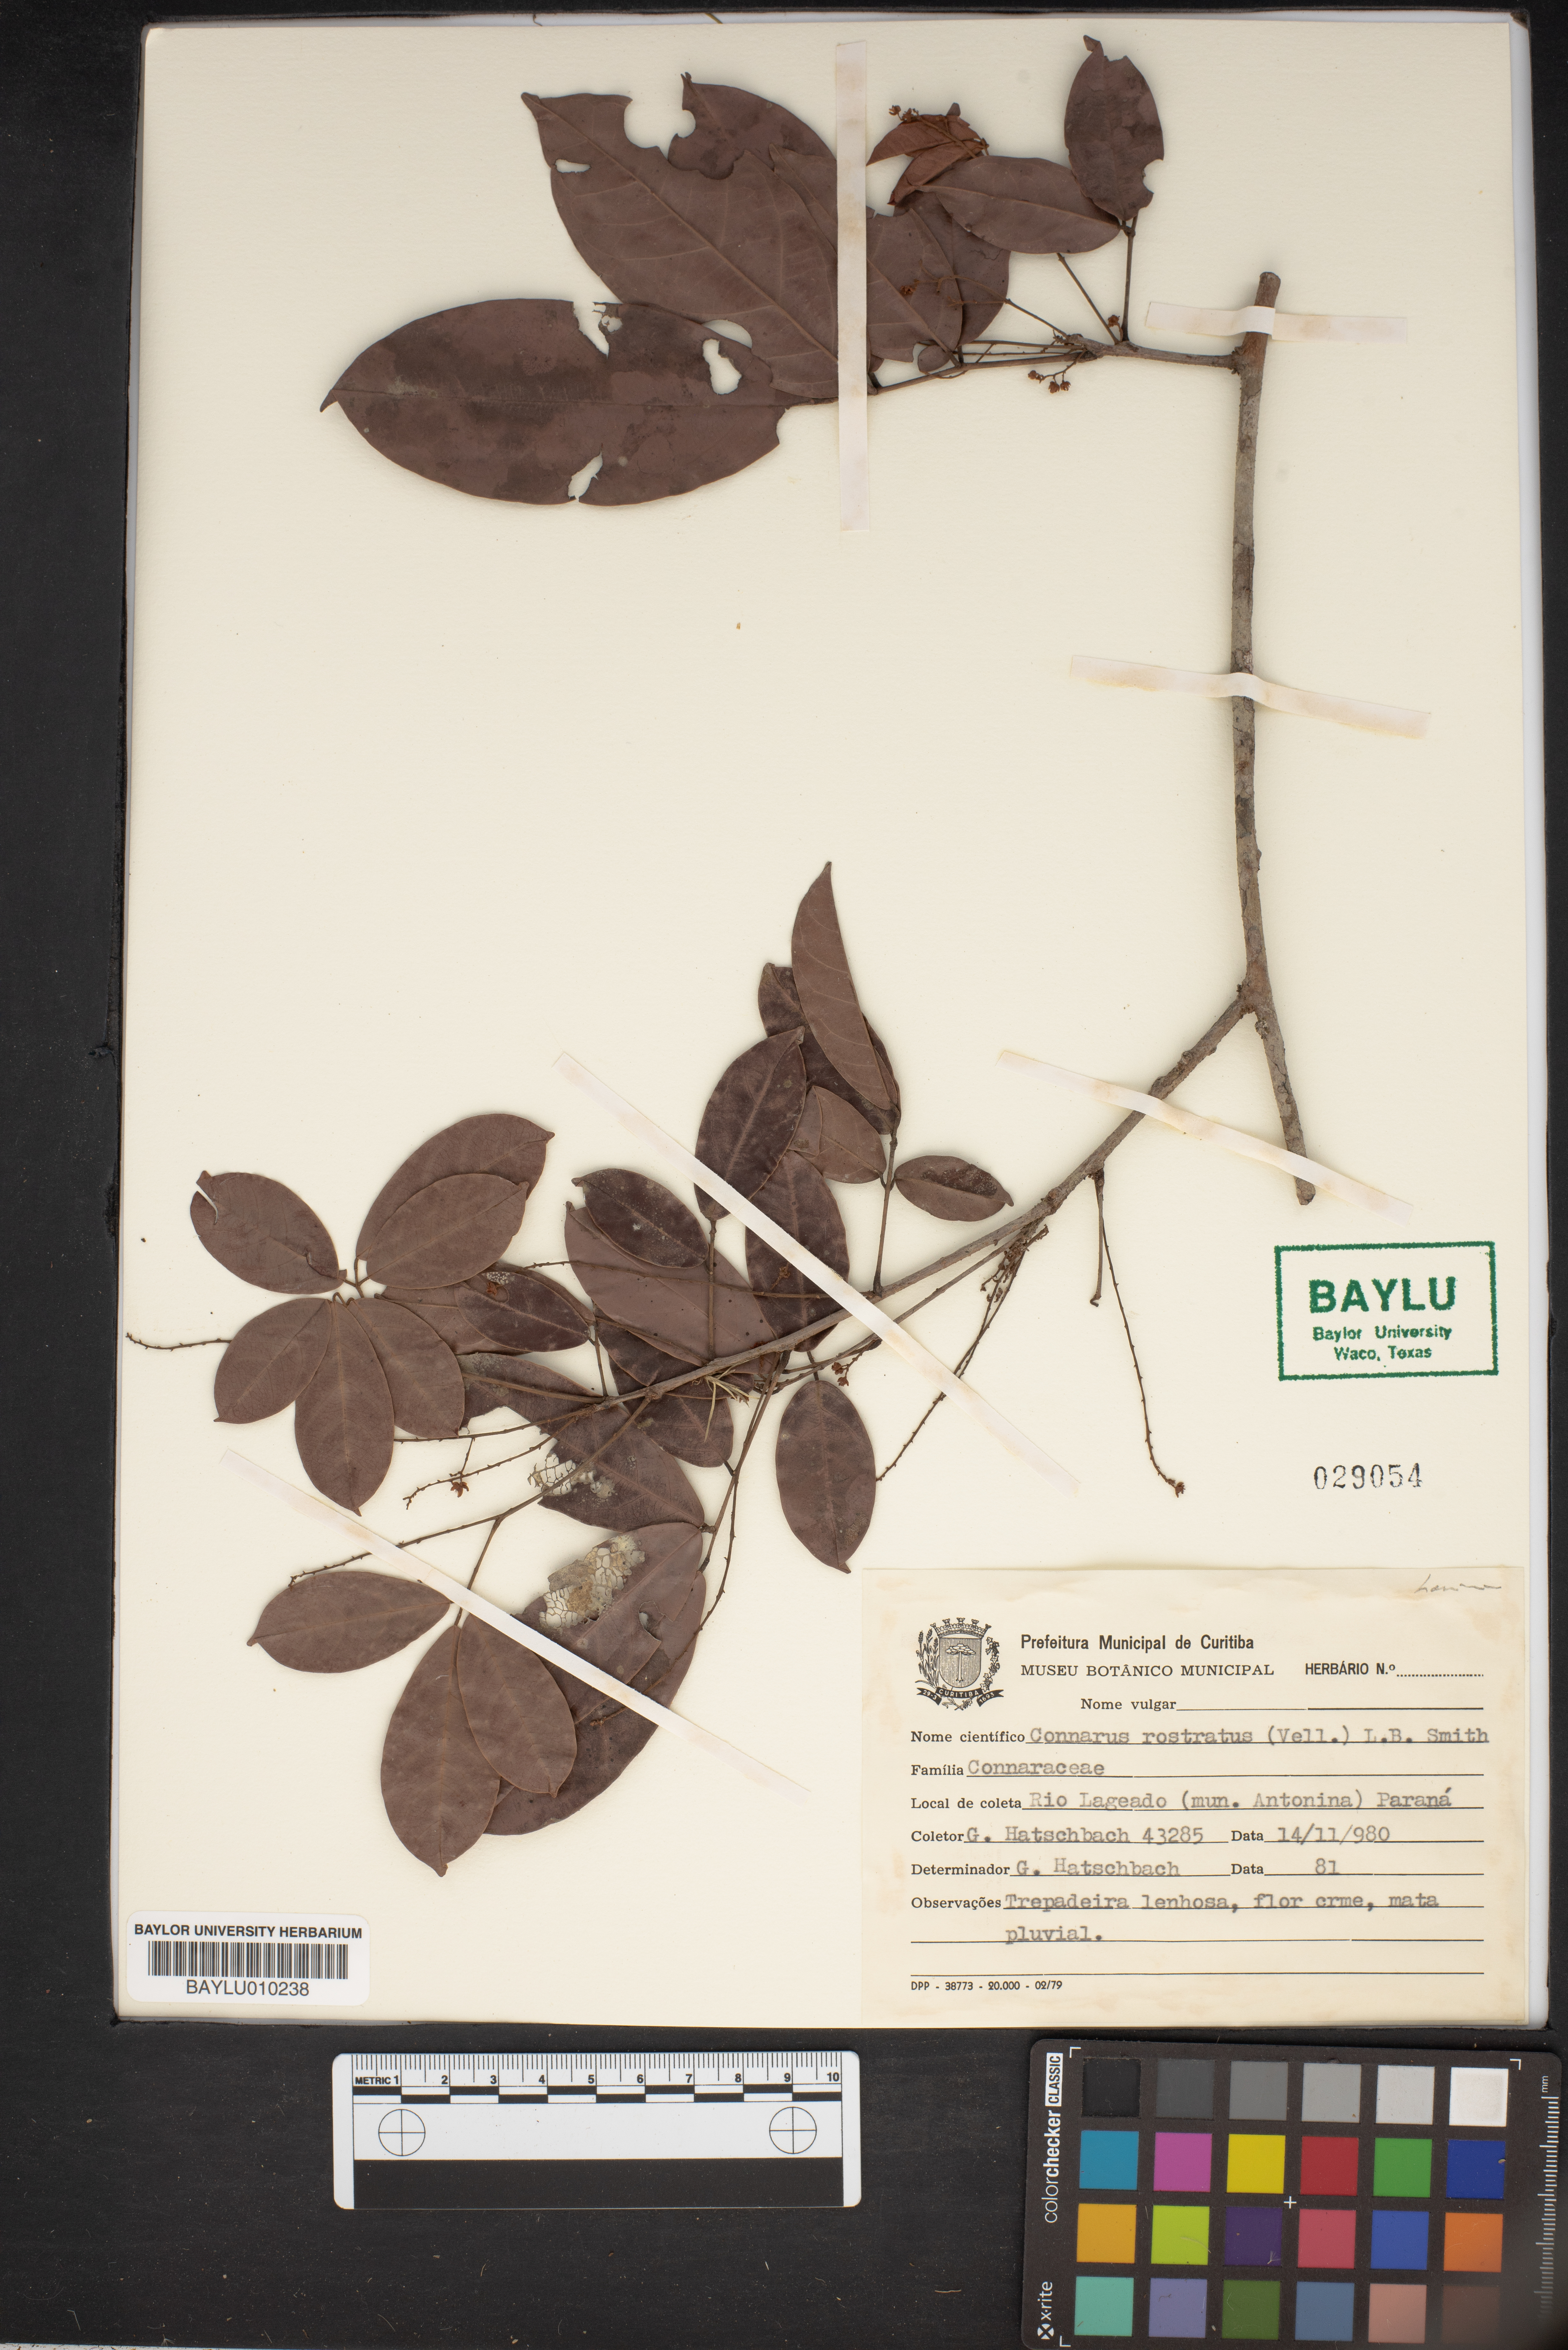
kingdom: Plantae
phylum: Tracheophyta
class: Magnoliopsida
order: Oxalidales
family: Connaraceae
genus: Connarus
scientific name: Connarus rostratus
